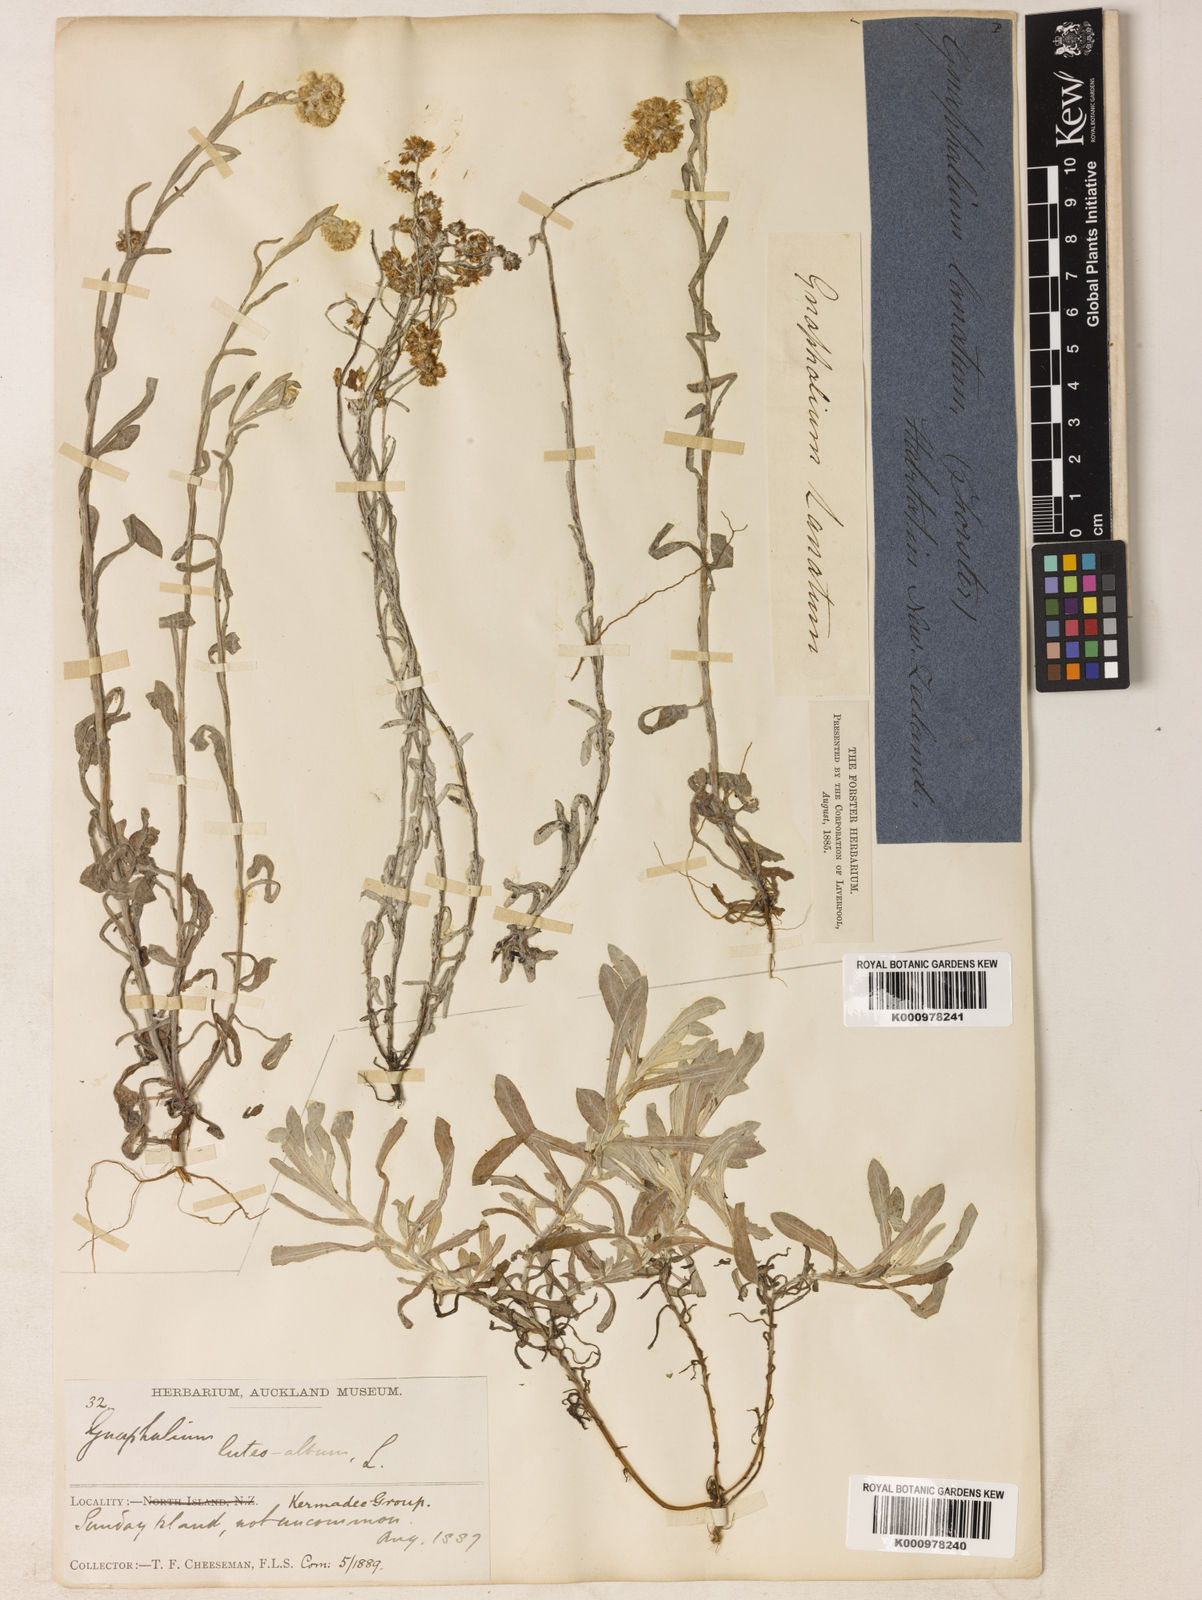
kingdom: Plantae
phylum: Tracheophyta
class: Magnoliopsida
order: Asterales
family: Asteraceae
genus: Helichrysum
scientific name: Helichrysum luteoalbum
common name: Daisy
